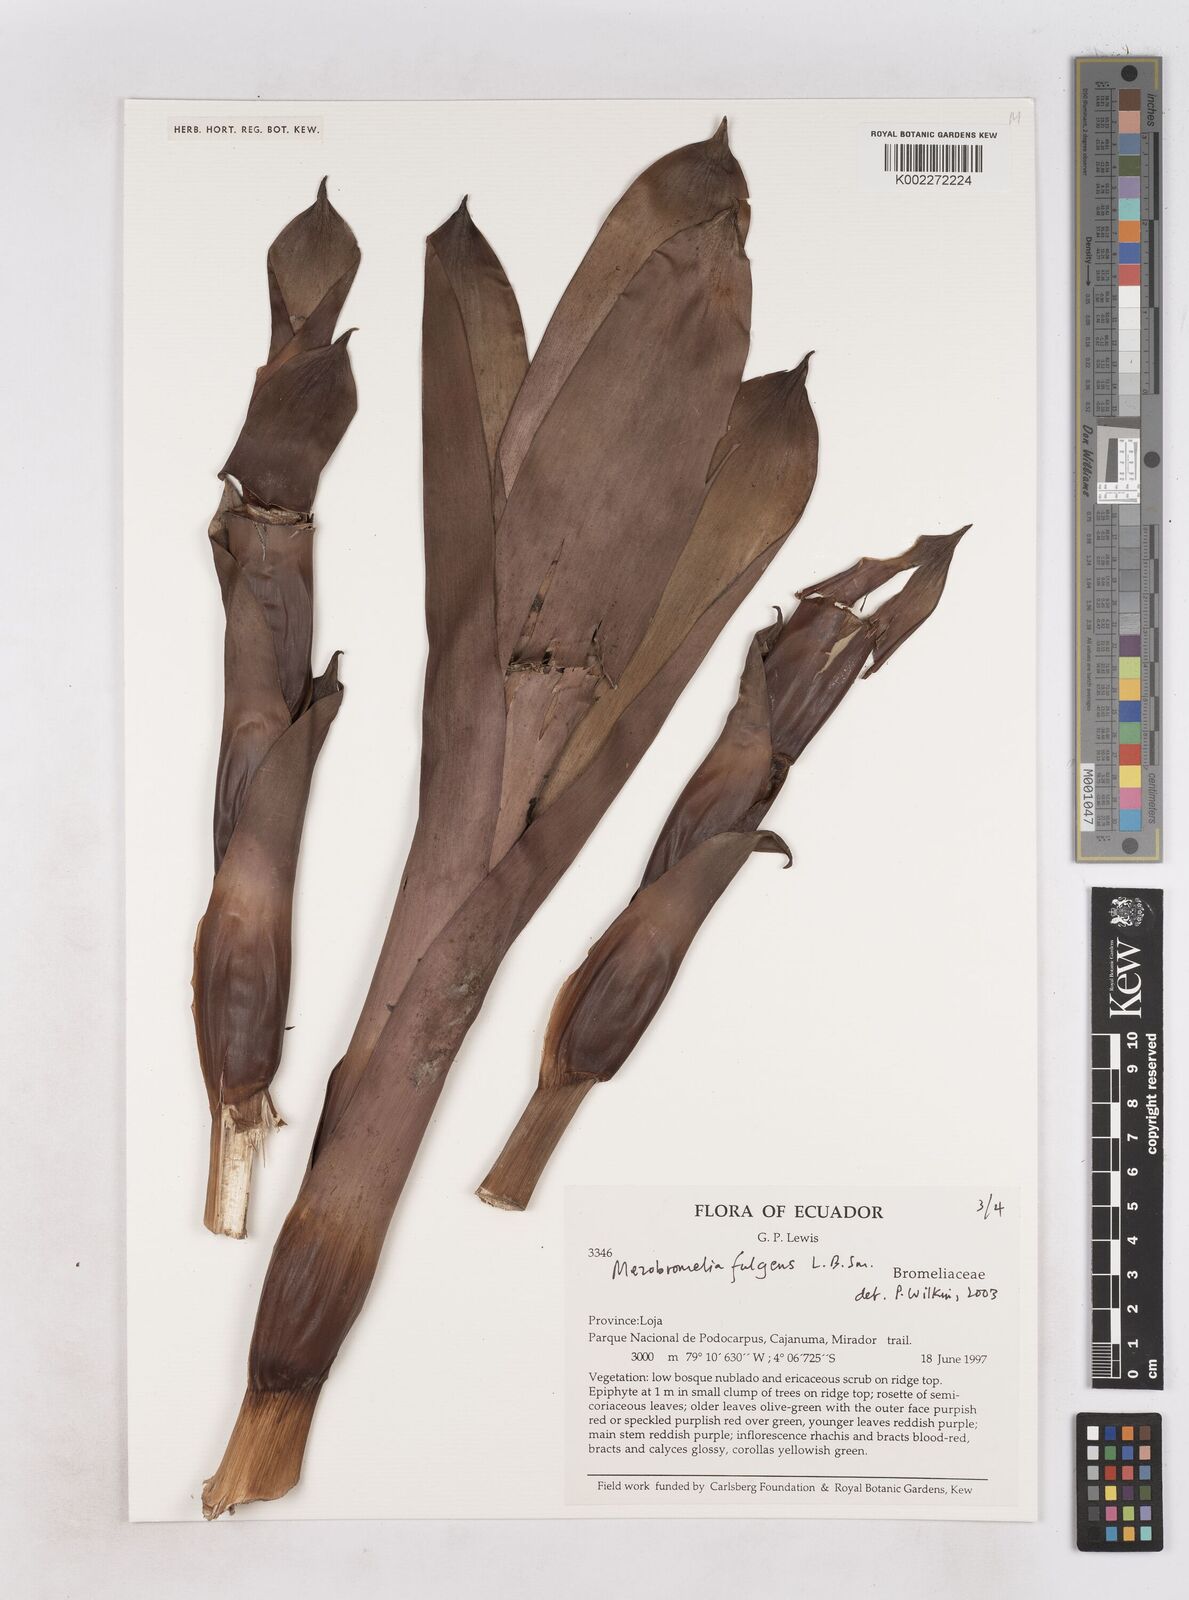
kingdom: Plantae
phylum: Tracheophyta
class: Liliopsida
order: Poales
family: Bromeliaceae
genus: Gregbrownia
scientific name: Gregbrownia fulgens
